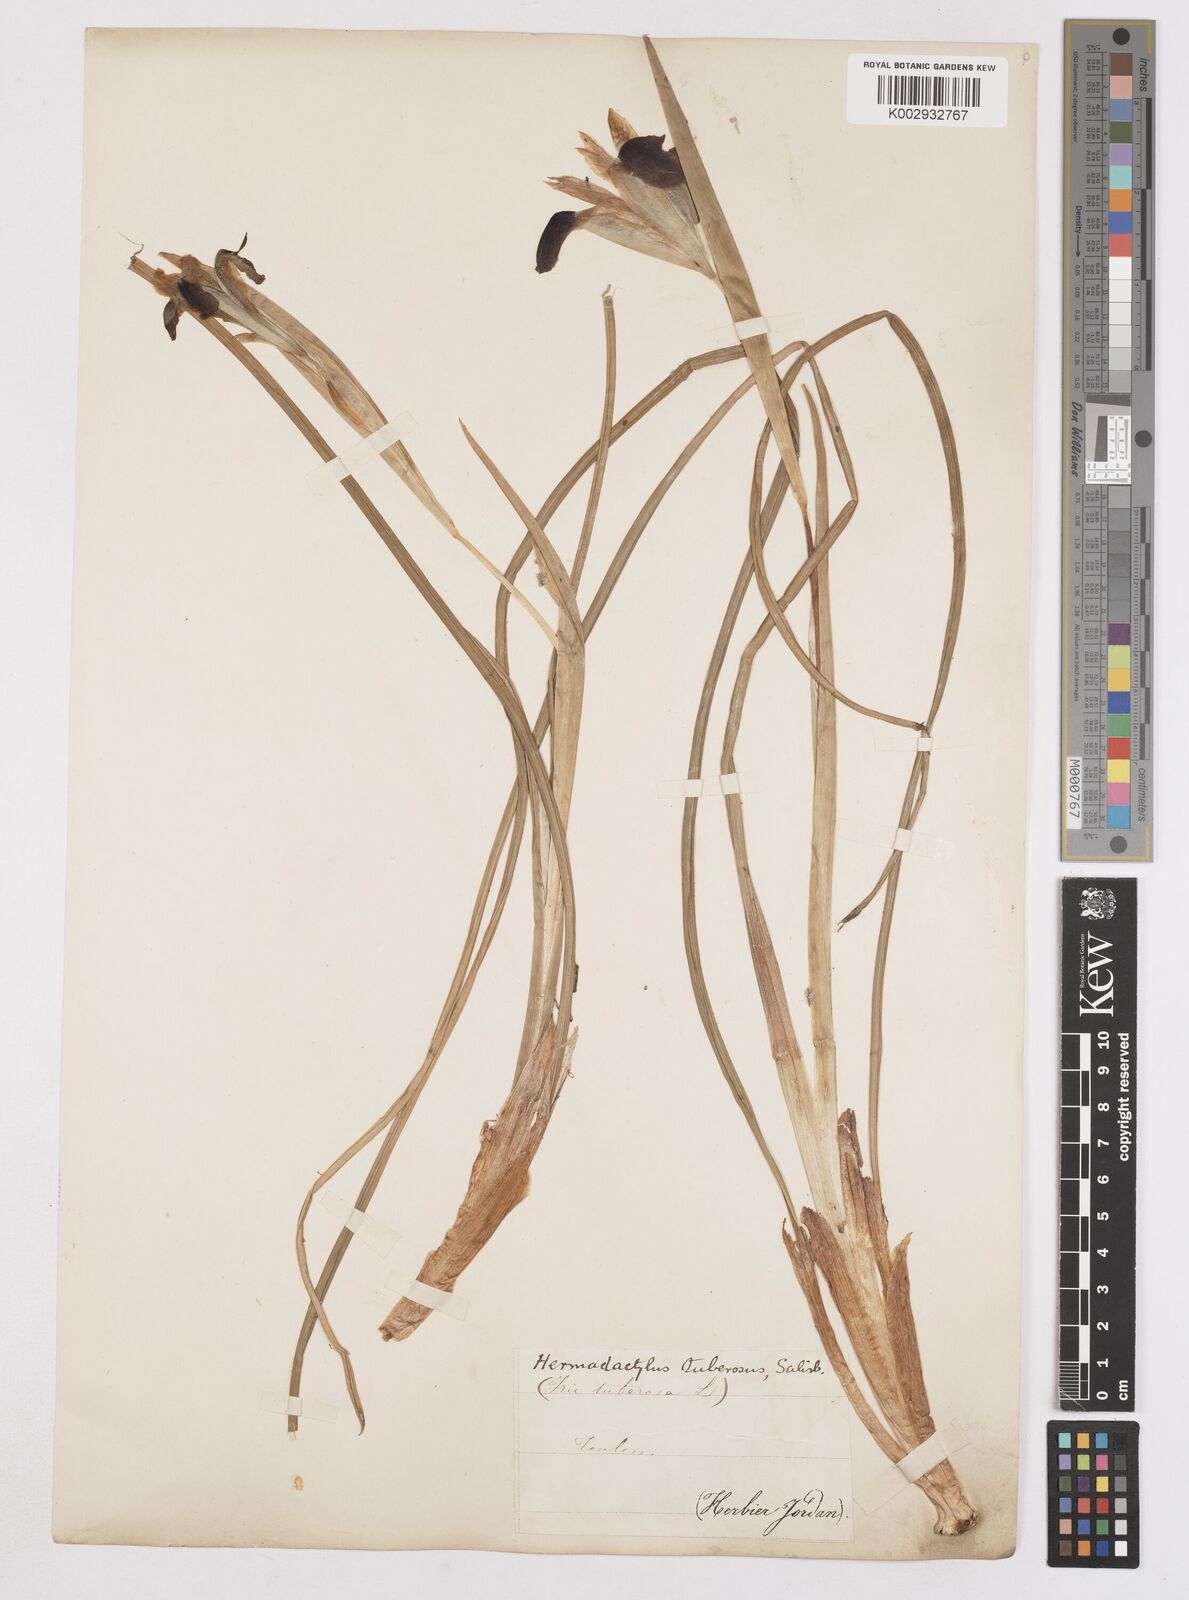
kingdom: Plantae
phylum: Tracheophyta
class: Liliopsida
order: Asparagales
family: Iridaceae
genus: Iris
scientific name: Iris tuberosa
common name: Snake's-head iris
